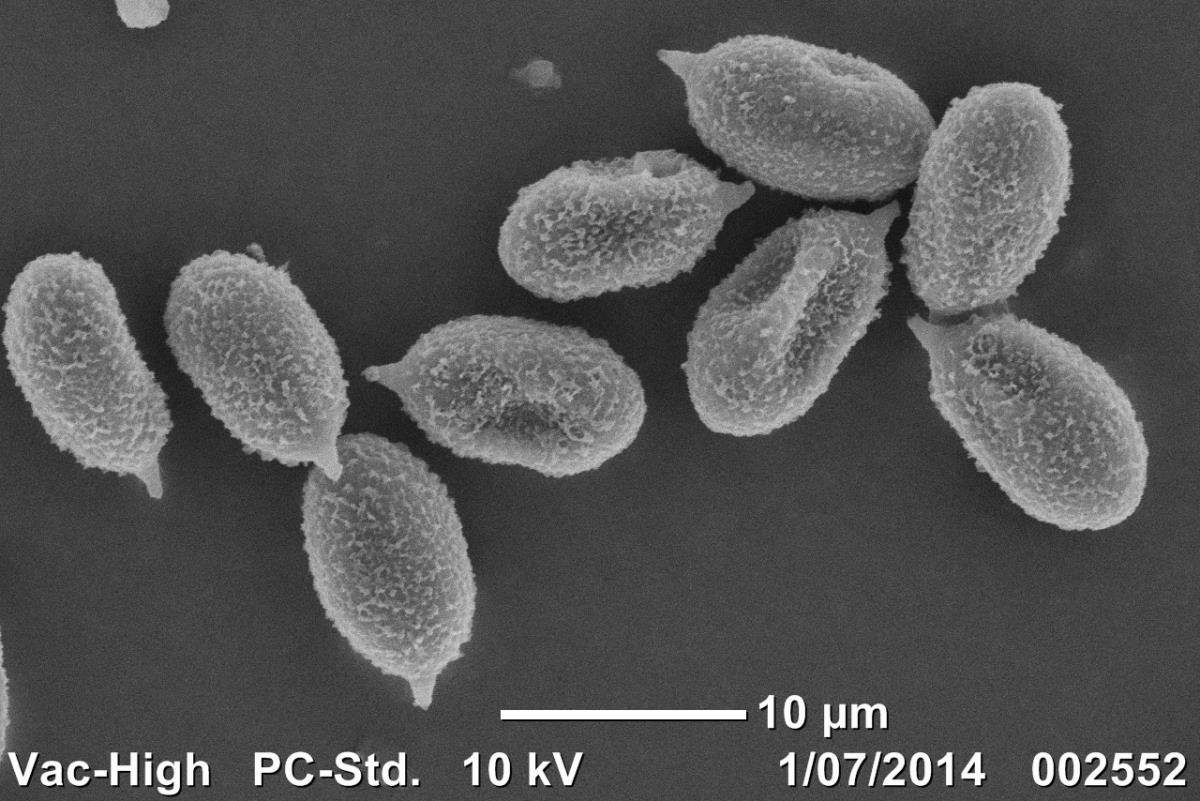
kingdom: Fungi
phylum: Basidiomycota
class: Agaricomycetes
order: Agaricales
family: Cortinariaceae
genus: Thaxterogaster
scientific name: Thaxterogaster
